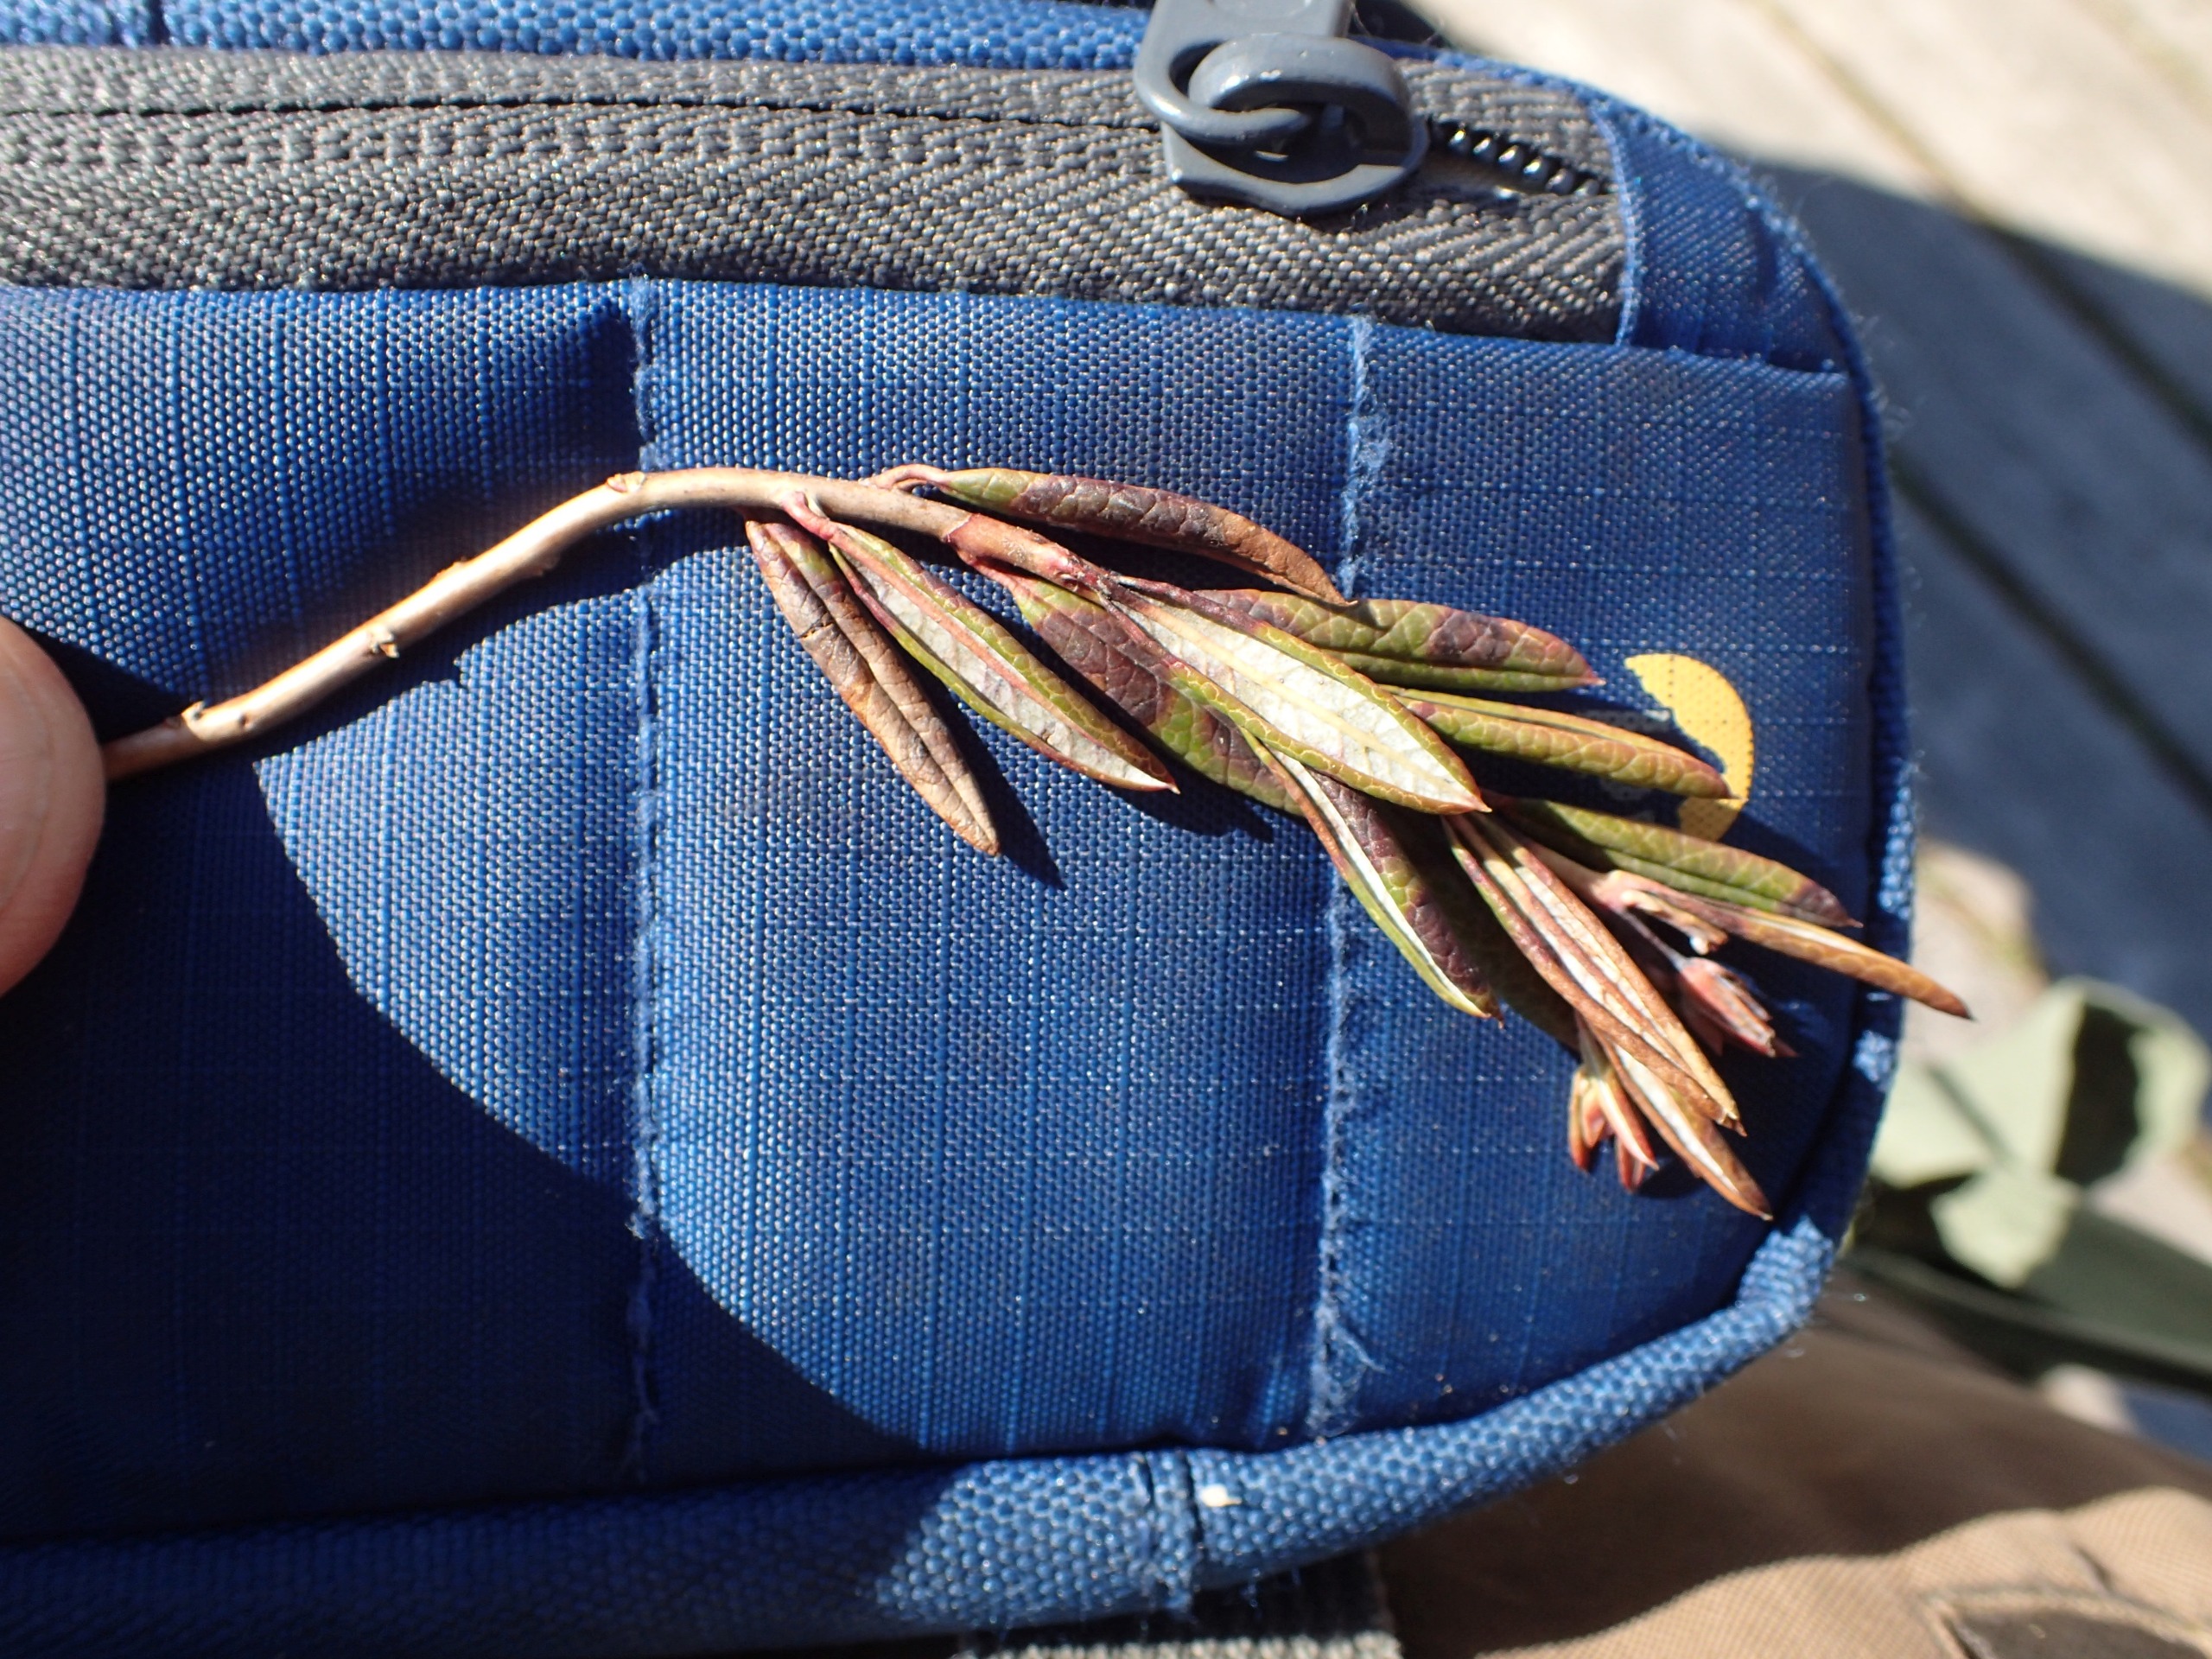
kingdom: Plantae
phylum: Tracheophyta
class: Magnoliopsida
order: Ericales
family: Ericaceae
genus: Andromeda
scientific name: Andromeda polifolia
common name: Rosmarinlyng
